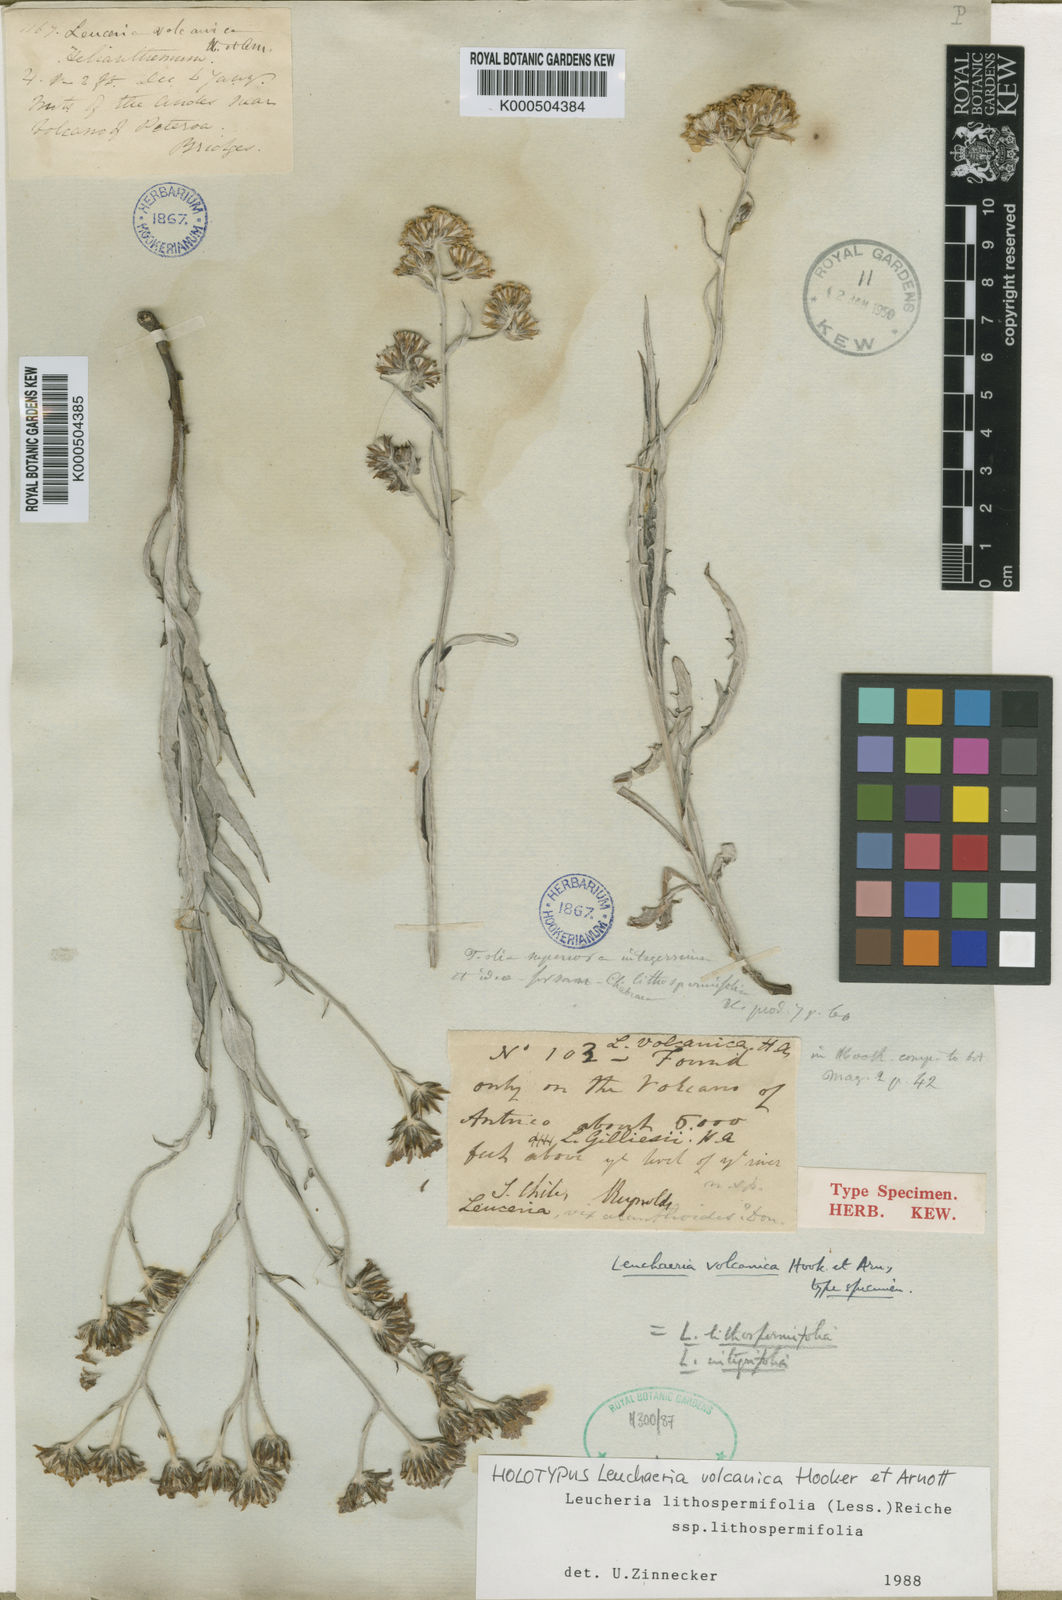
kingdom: Plantae
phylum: Tracheophyta
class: Magnoliopsida
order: Asterales
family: Asteraceae
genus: Leucheria
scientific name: Leucheria lithospermifolia
